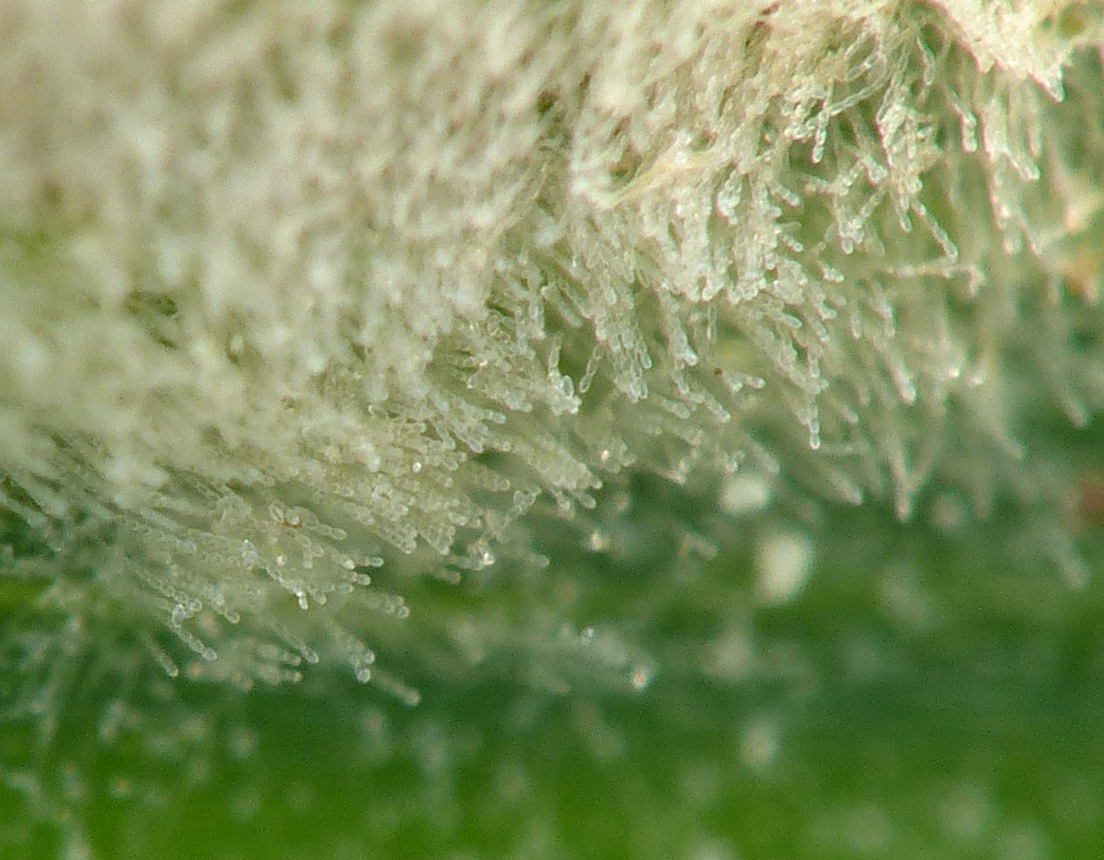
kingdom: Fungi
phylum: Ascomycota
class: Leotiomycetes
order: Helotiales
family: Erysiphaceae
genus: Blumeria
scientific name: Blumeria graminis
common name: græs-meldug
